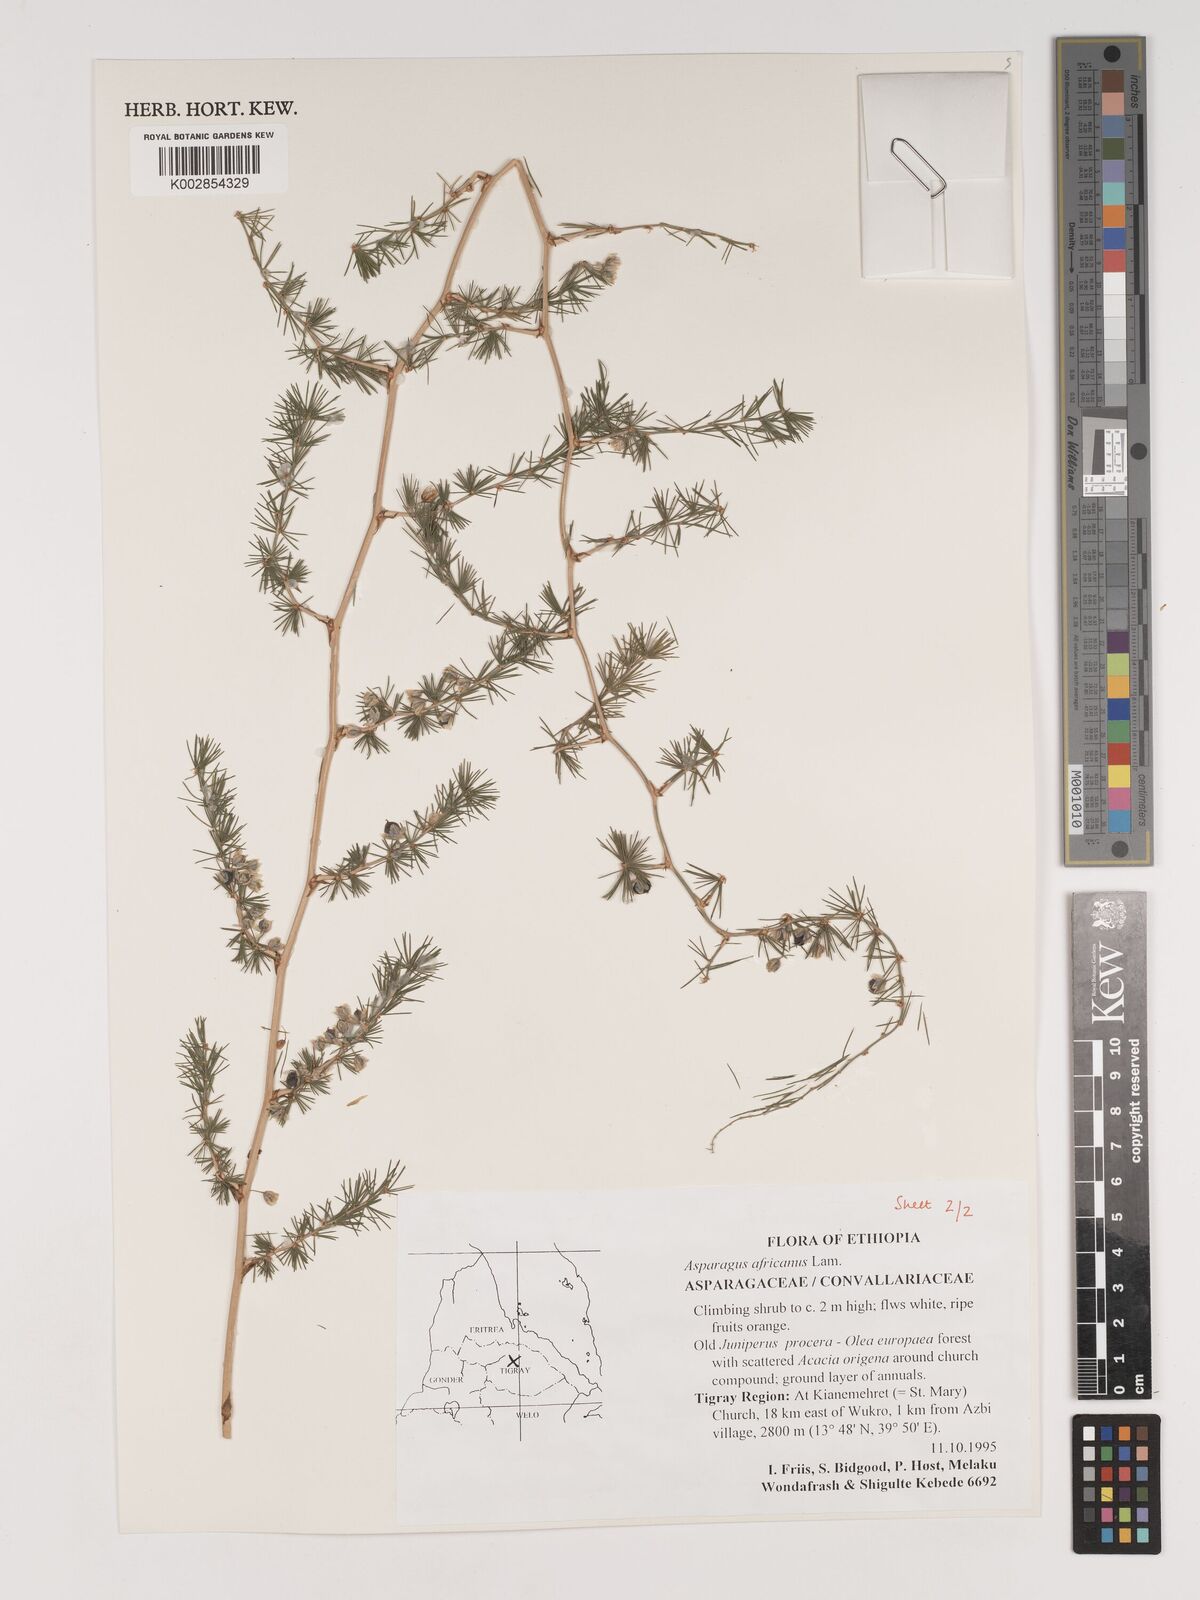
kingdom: Plantae
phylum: Tracheophyta
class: Liliopsida
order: Asparagales
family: Asparagaceae
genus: Asparagus
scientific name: Asparagus africanus
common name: Asparagus-fern
